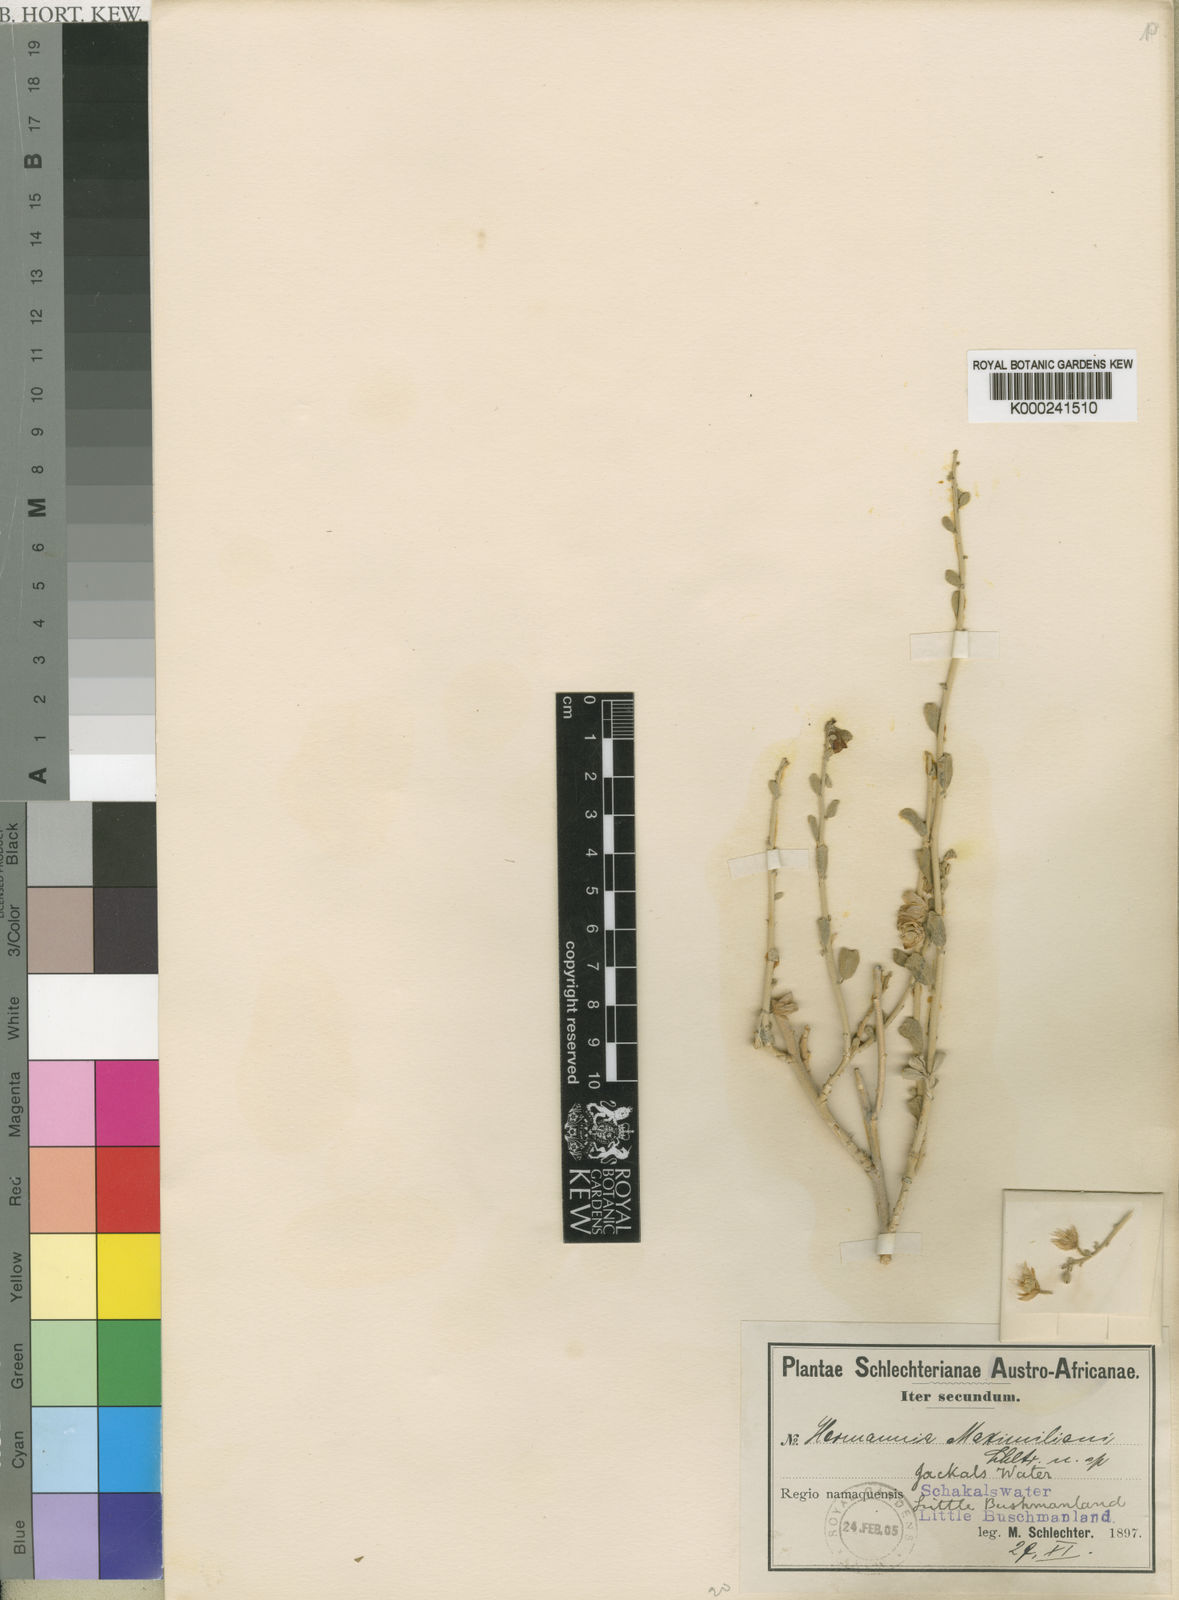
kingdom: Plantae
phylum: Tracheophyta
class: Magnoliopsida
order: Malvales
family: Malvaceae
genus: Hermannia
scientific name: Hermannia
